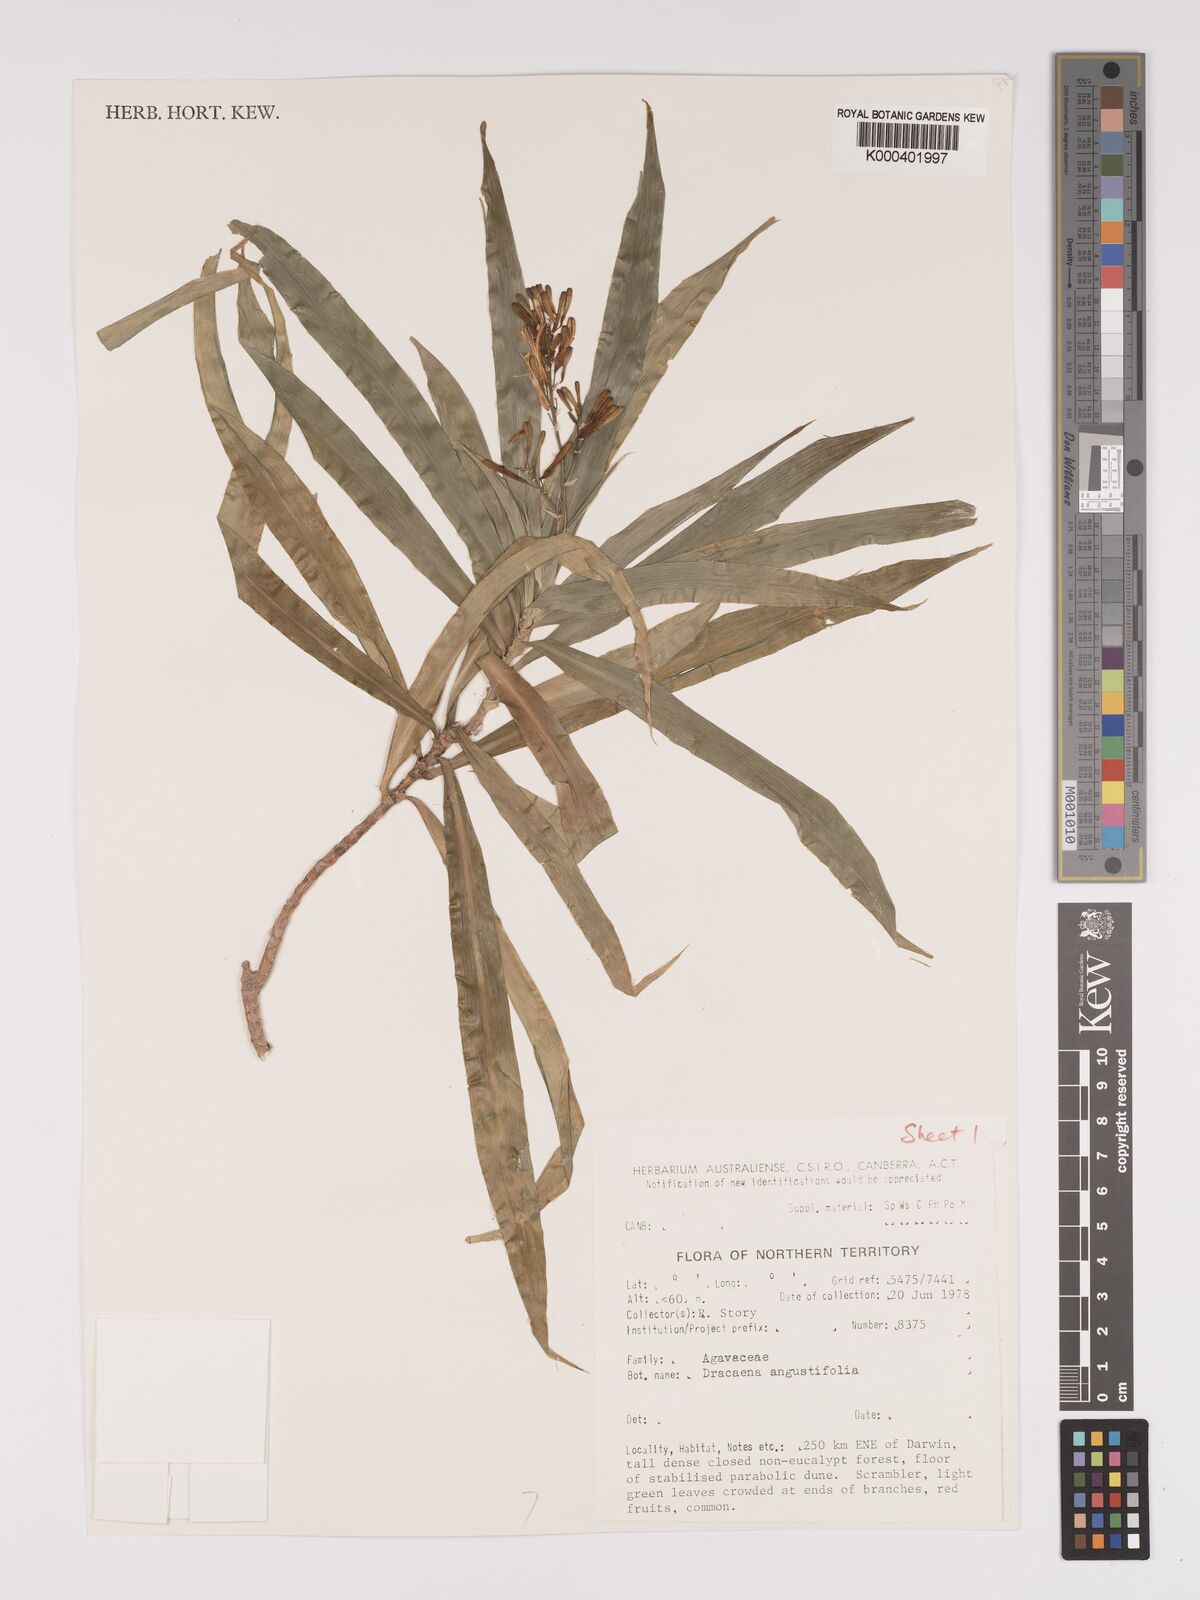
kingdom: Plantae
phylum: Tracheophyta
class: Liliopsida
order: Asparagales
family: Asparagaceae
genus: Dracaena
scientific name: Dracaena angustifolia
